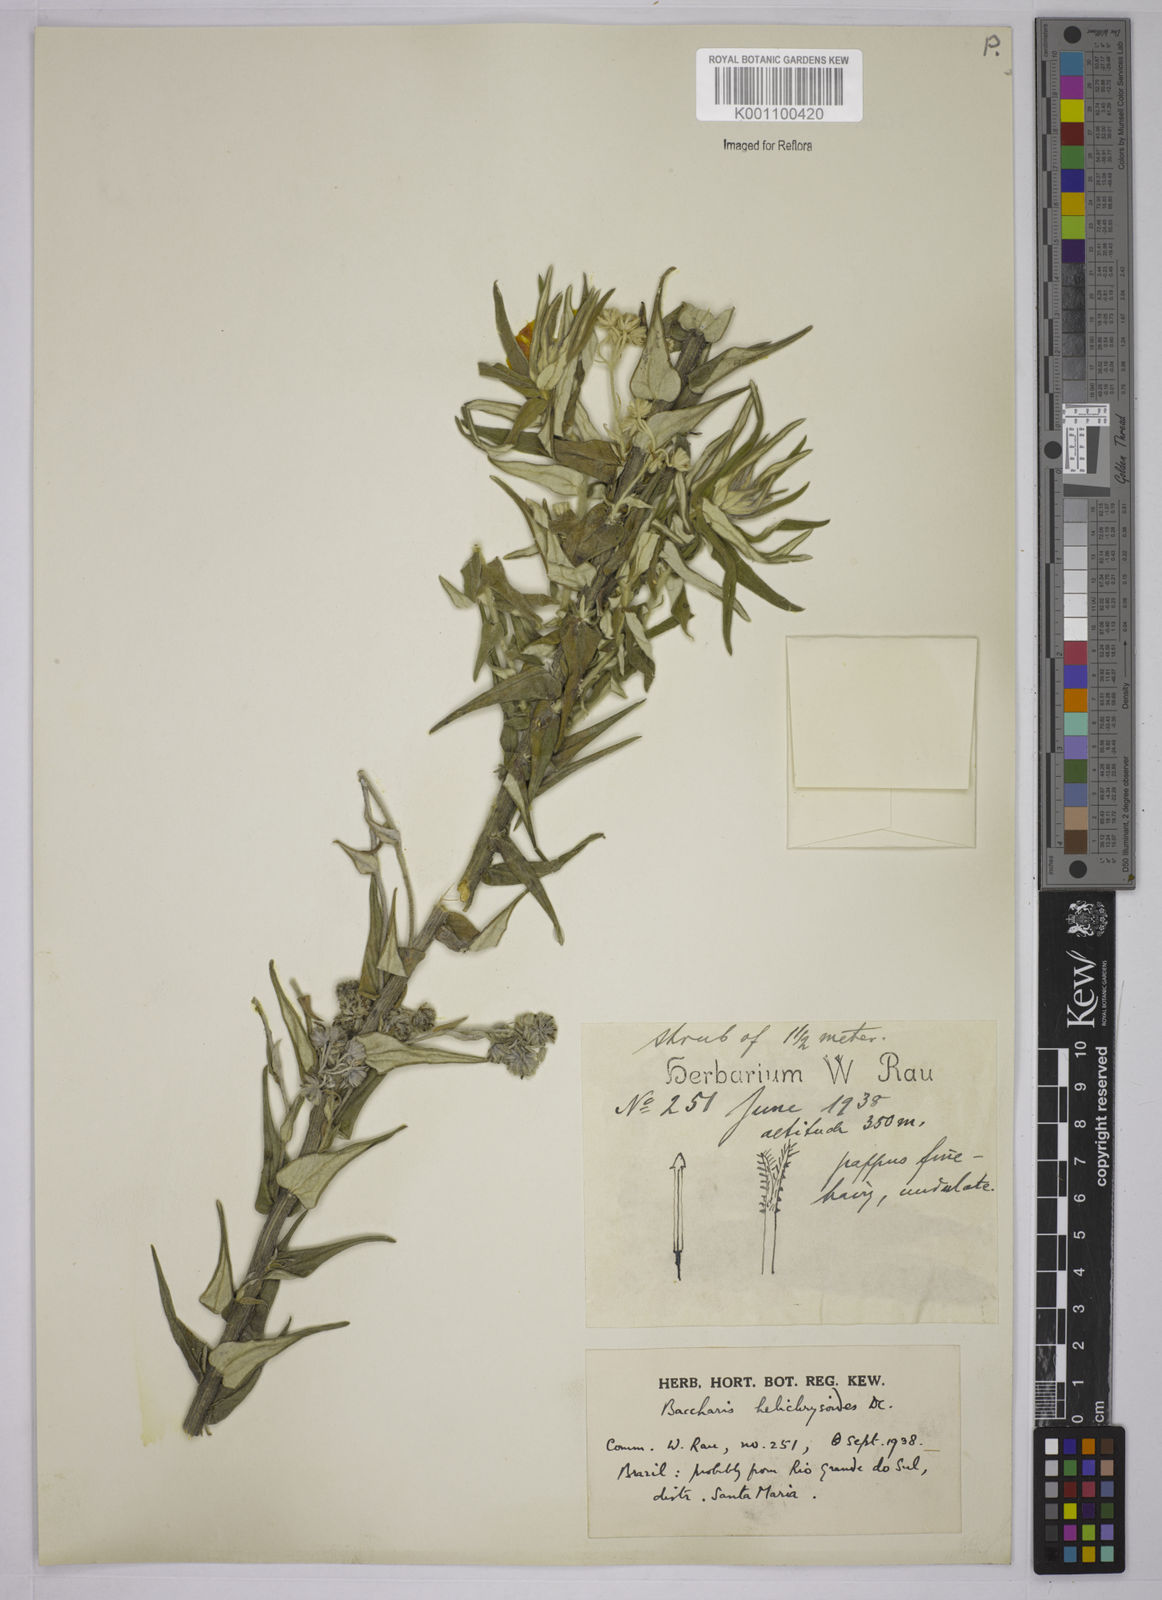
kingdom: Plantae
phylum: Tracheophyta
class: Magnoliopsida
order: Asterales
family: Asteraceae
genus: Baccharis
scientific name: Baccharis helichrysoides
